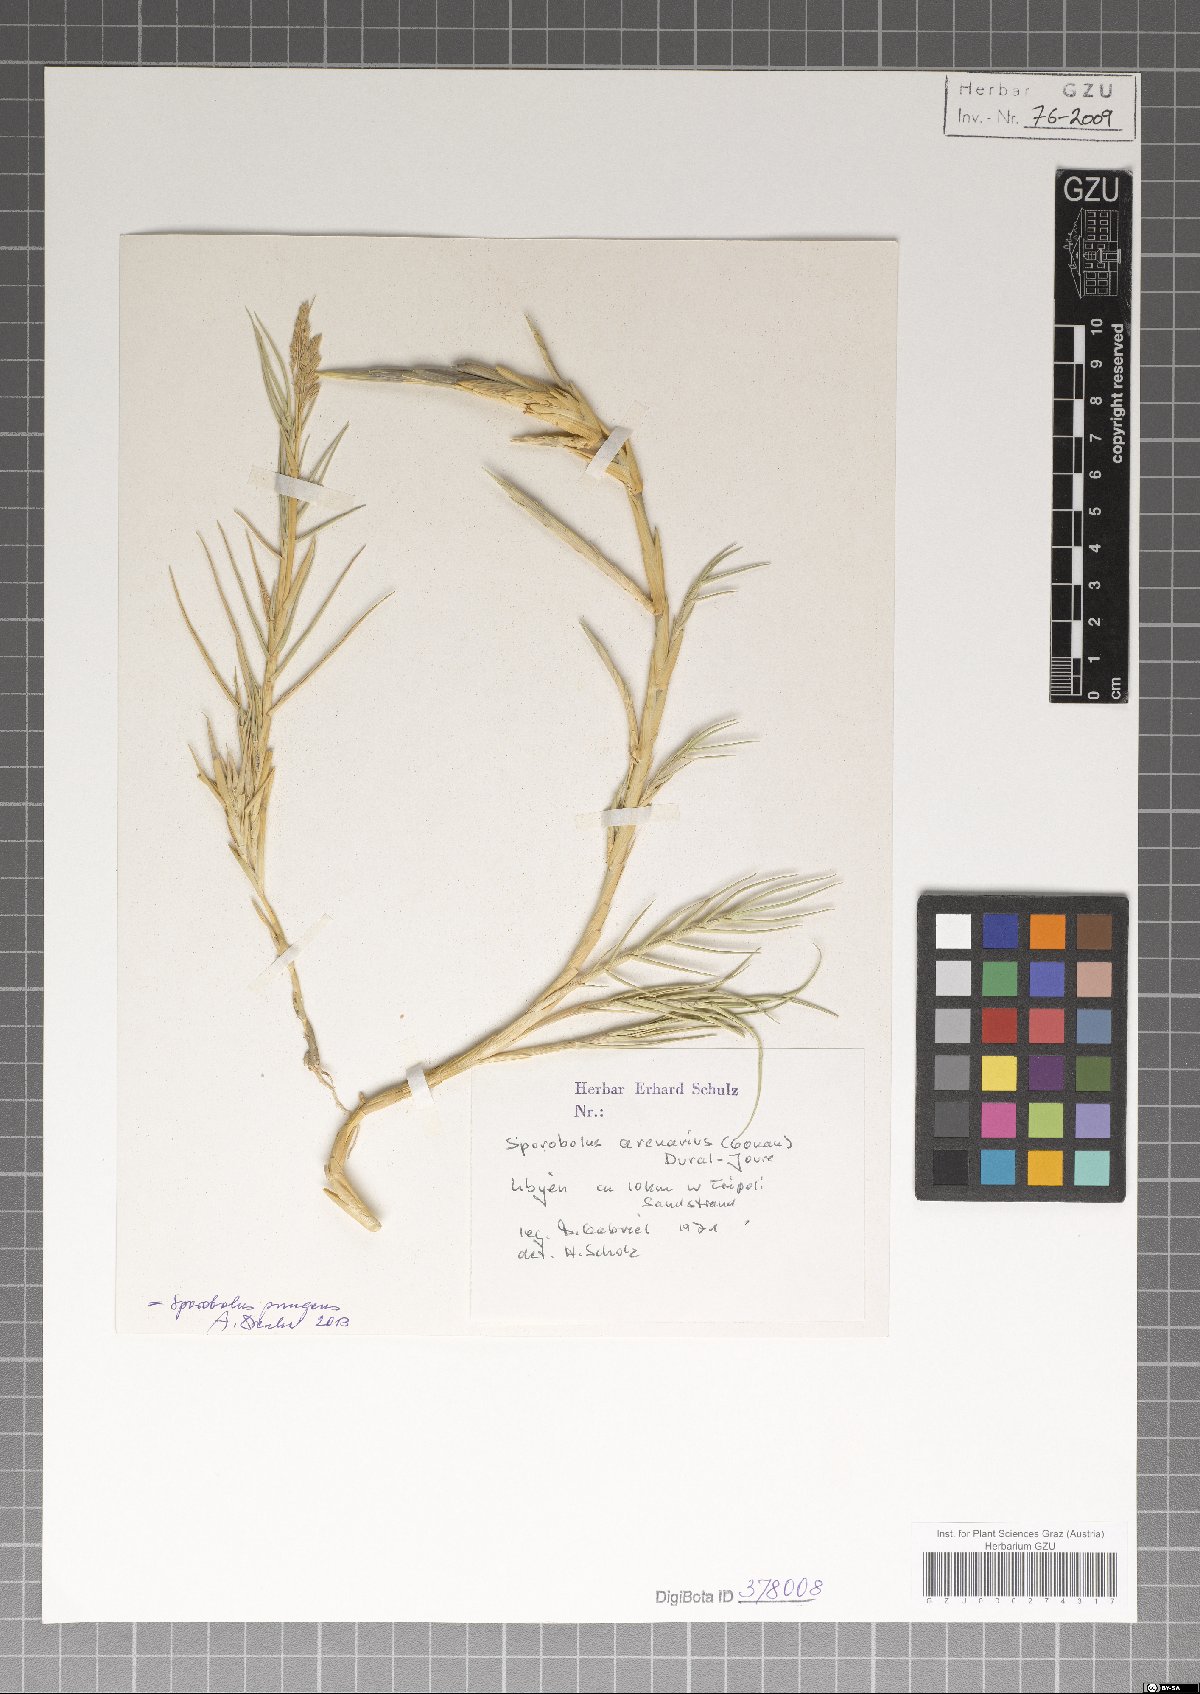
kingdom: Plantae
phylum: Tracheophyta
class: Liliopsida
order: Poales
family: Poaceae
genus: Sporobolus
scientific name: Sporobolus pungens
